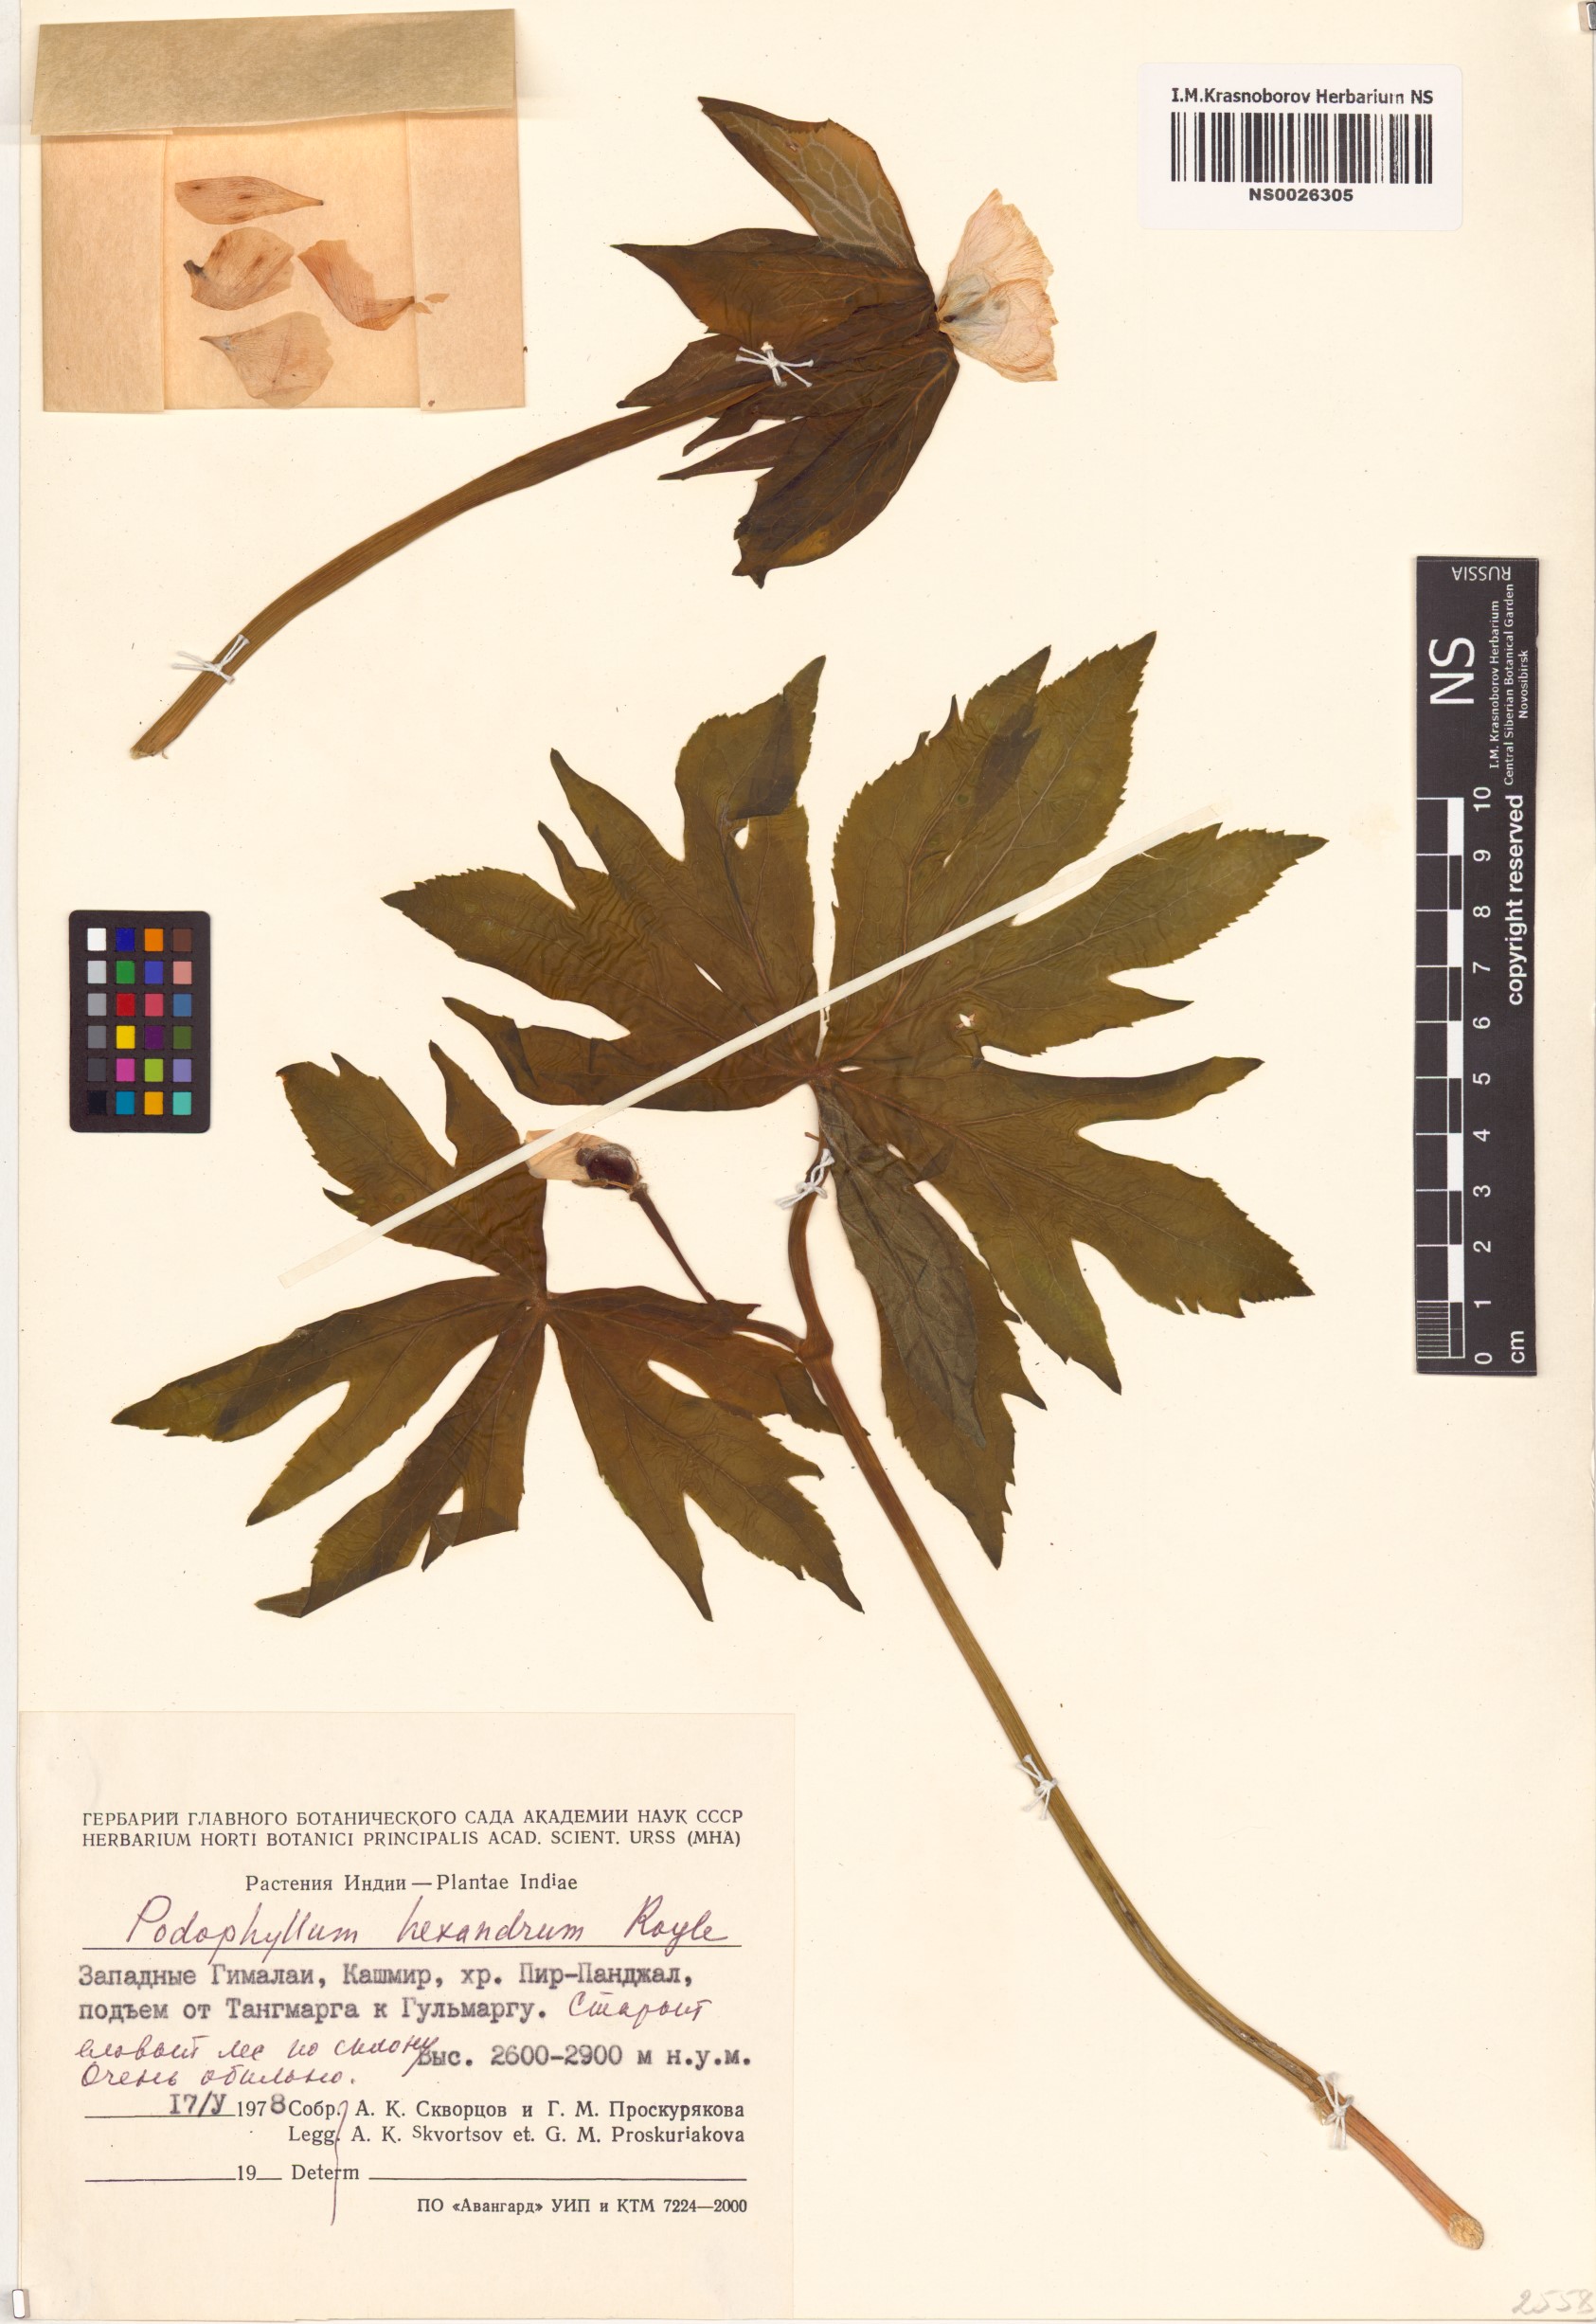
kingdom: Plantae
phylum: Tracheophyta
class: Magnoliopsida
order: Ranunculales
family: Berberidaceae
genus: Sinopodophyllum
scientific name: Sinopodophyllum hexandrum
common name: Himalayan may-apple
